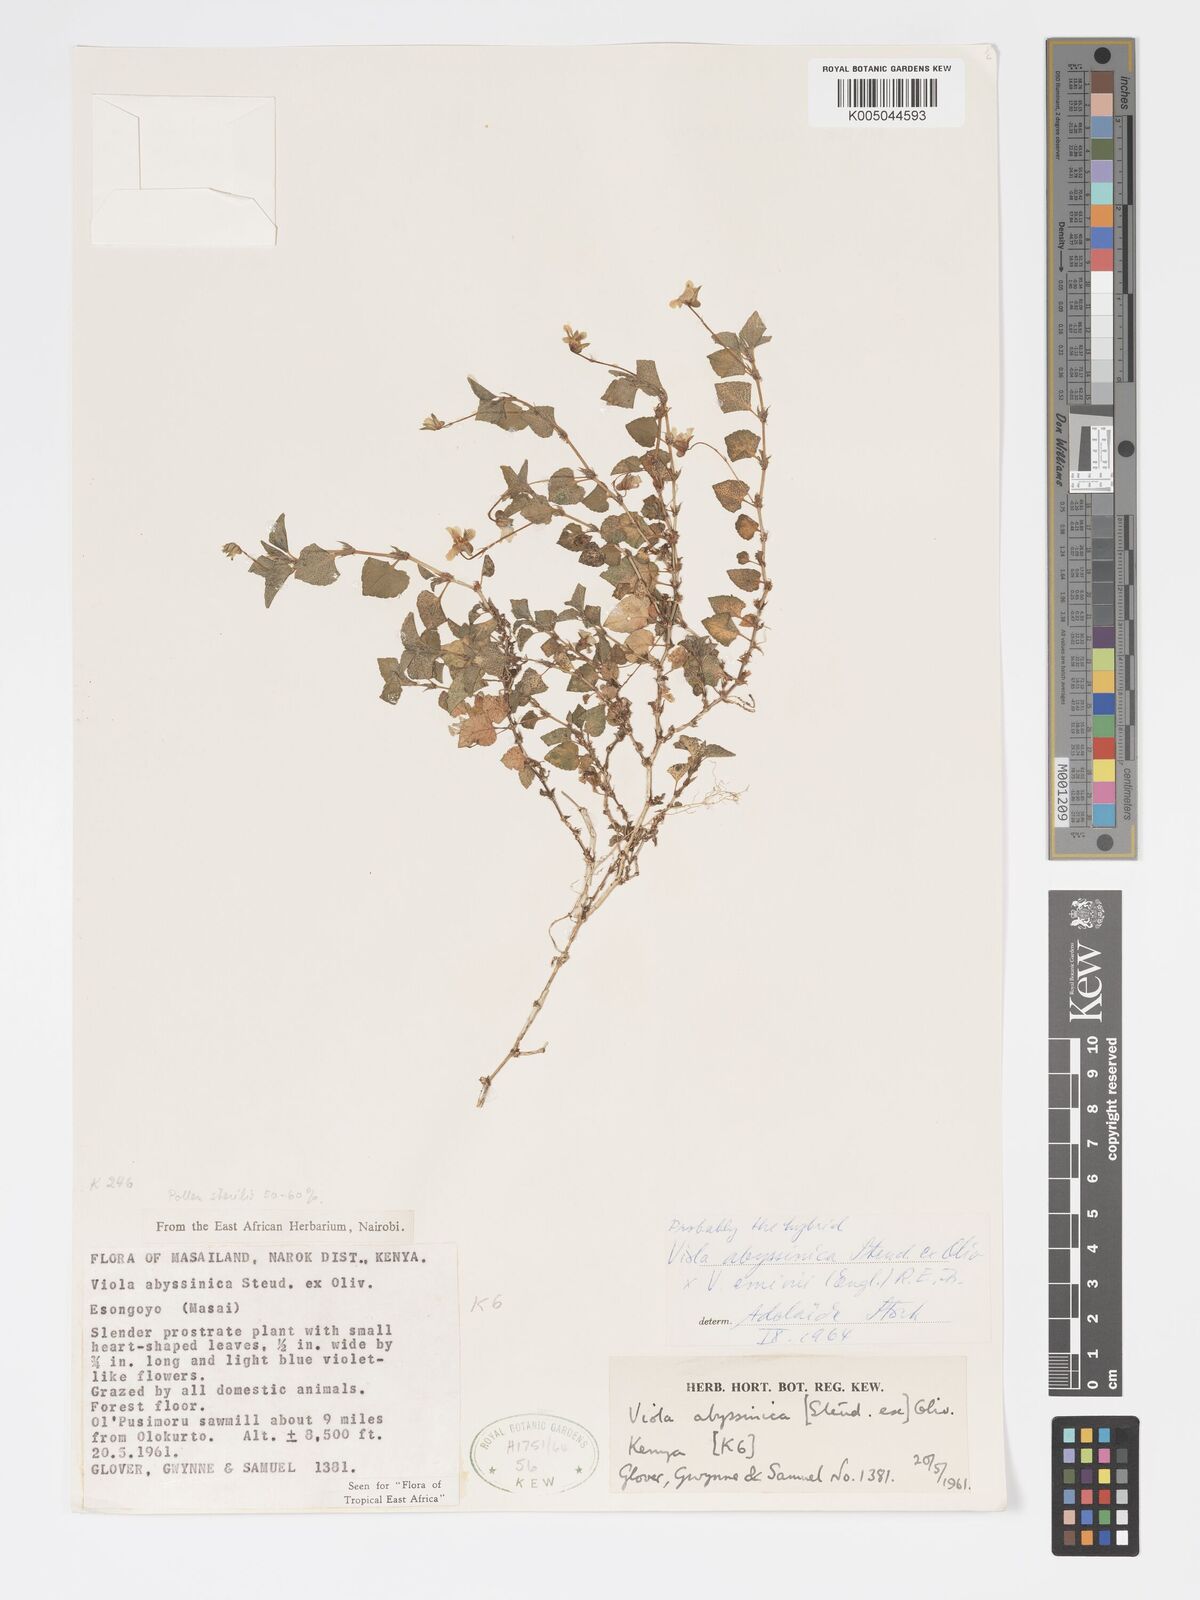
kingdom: Plantae
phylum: Tracheophyta
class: Magnoliopsida
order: Malpighiales
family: Violaceae
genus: Viola
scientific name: Viola abyssinica
